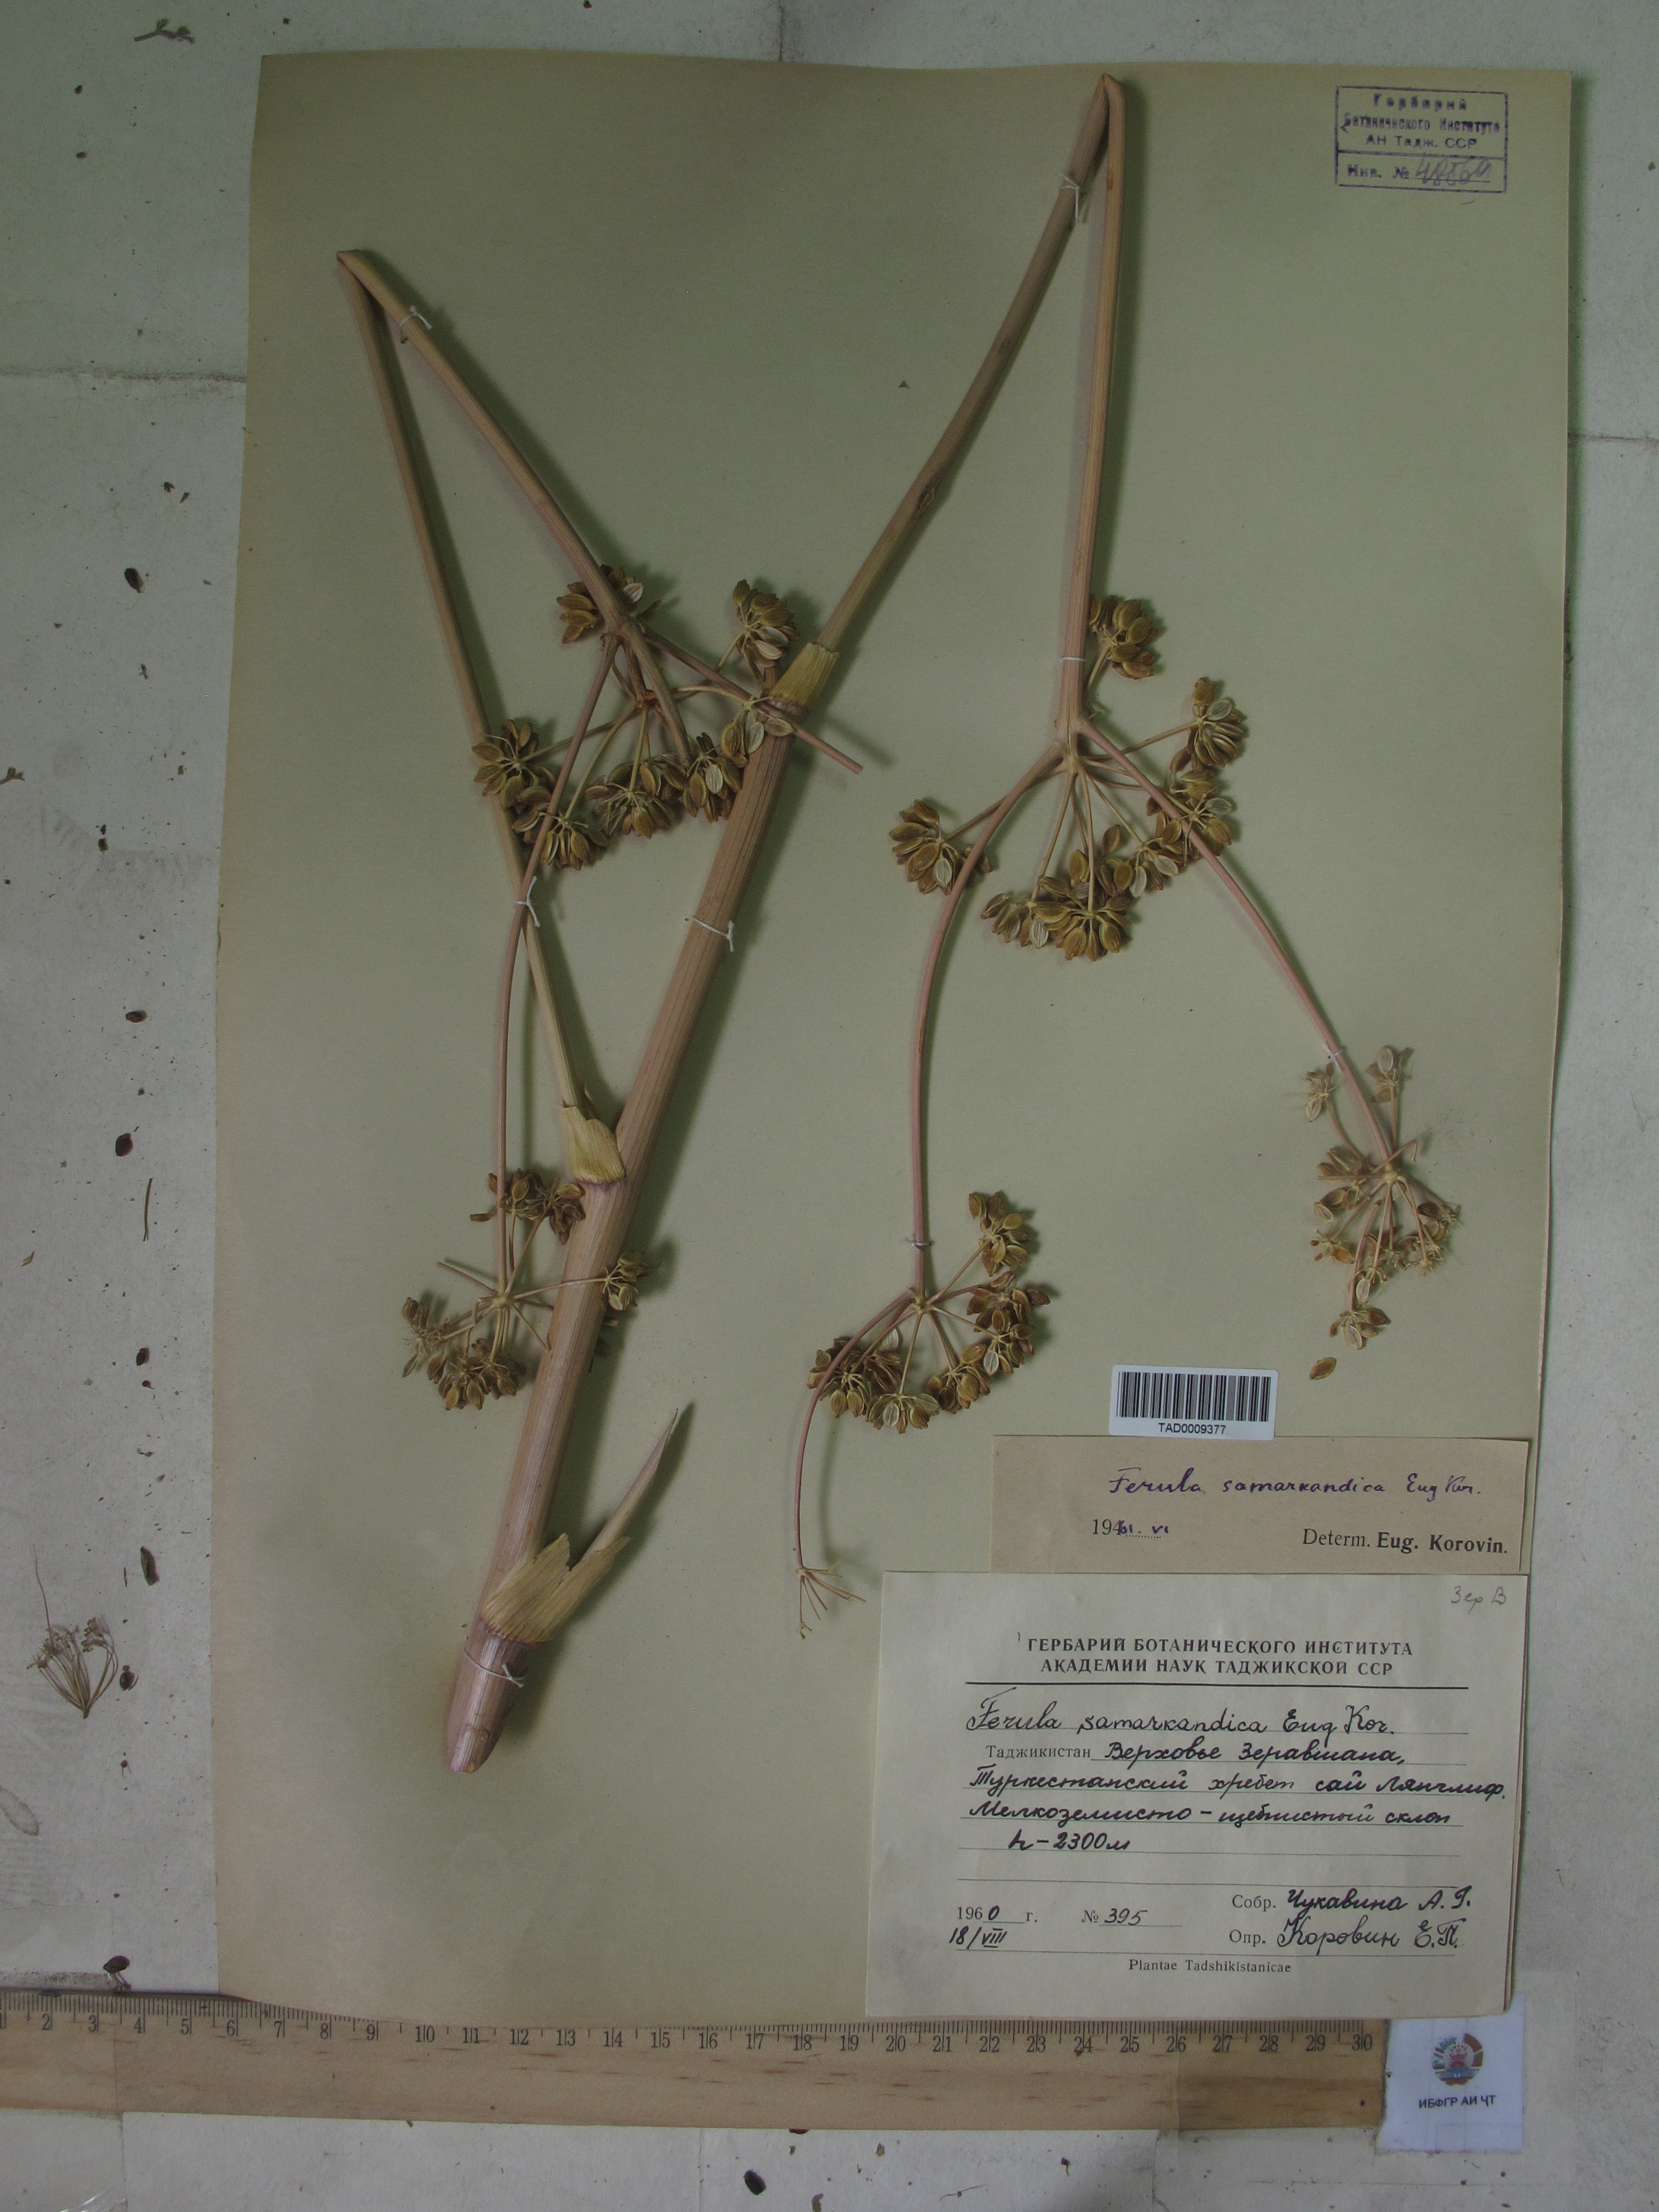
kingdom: Plantae
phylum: Tracheophyta
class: Magnoliopsida
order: Apiales
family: Apiaceae
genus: Ferula
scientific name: Ferula samarkandica
